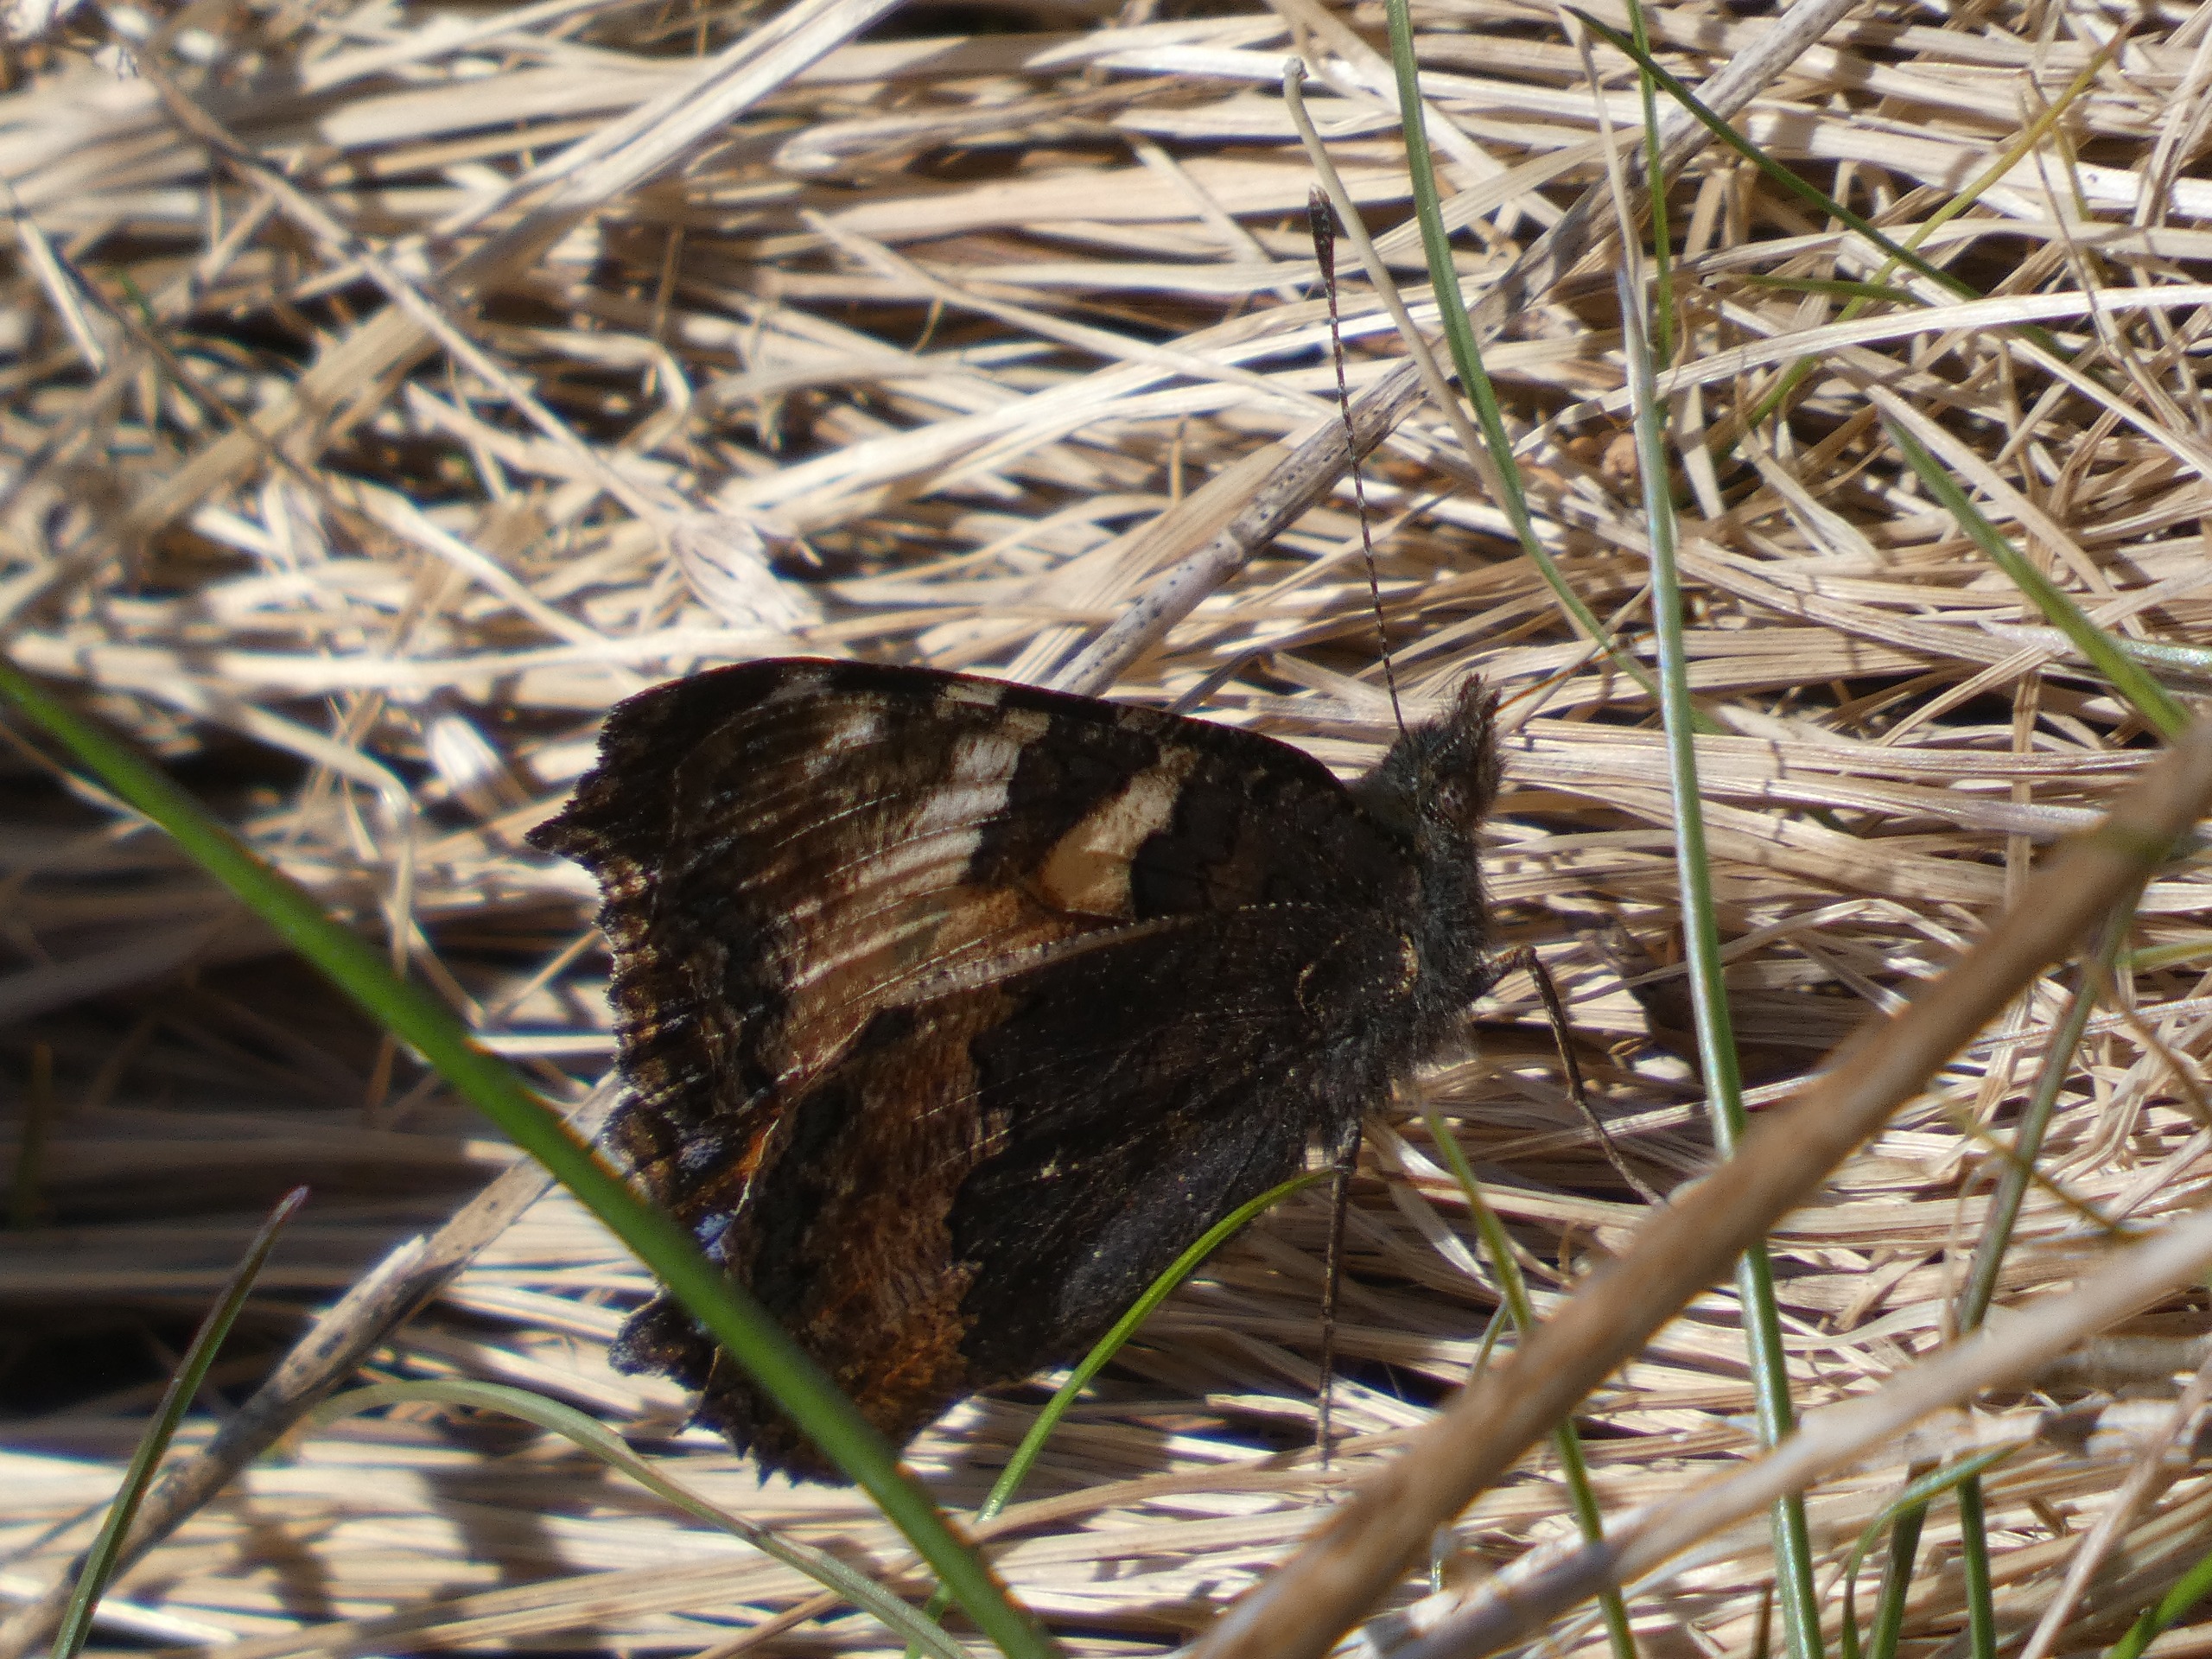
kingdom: Animalia
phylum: Arthropoda
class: Insecta
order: Lepidoptera
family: Nymphalidae
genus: Aglais
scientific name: Aglais urticae
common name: Nældens takvinge
